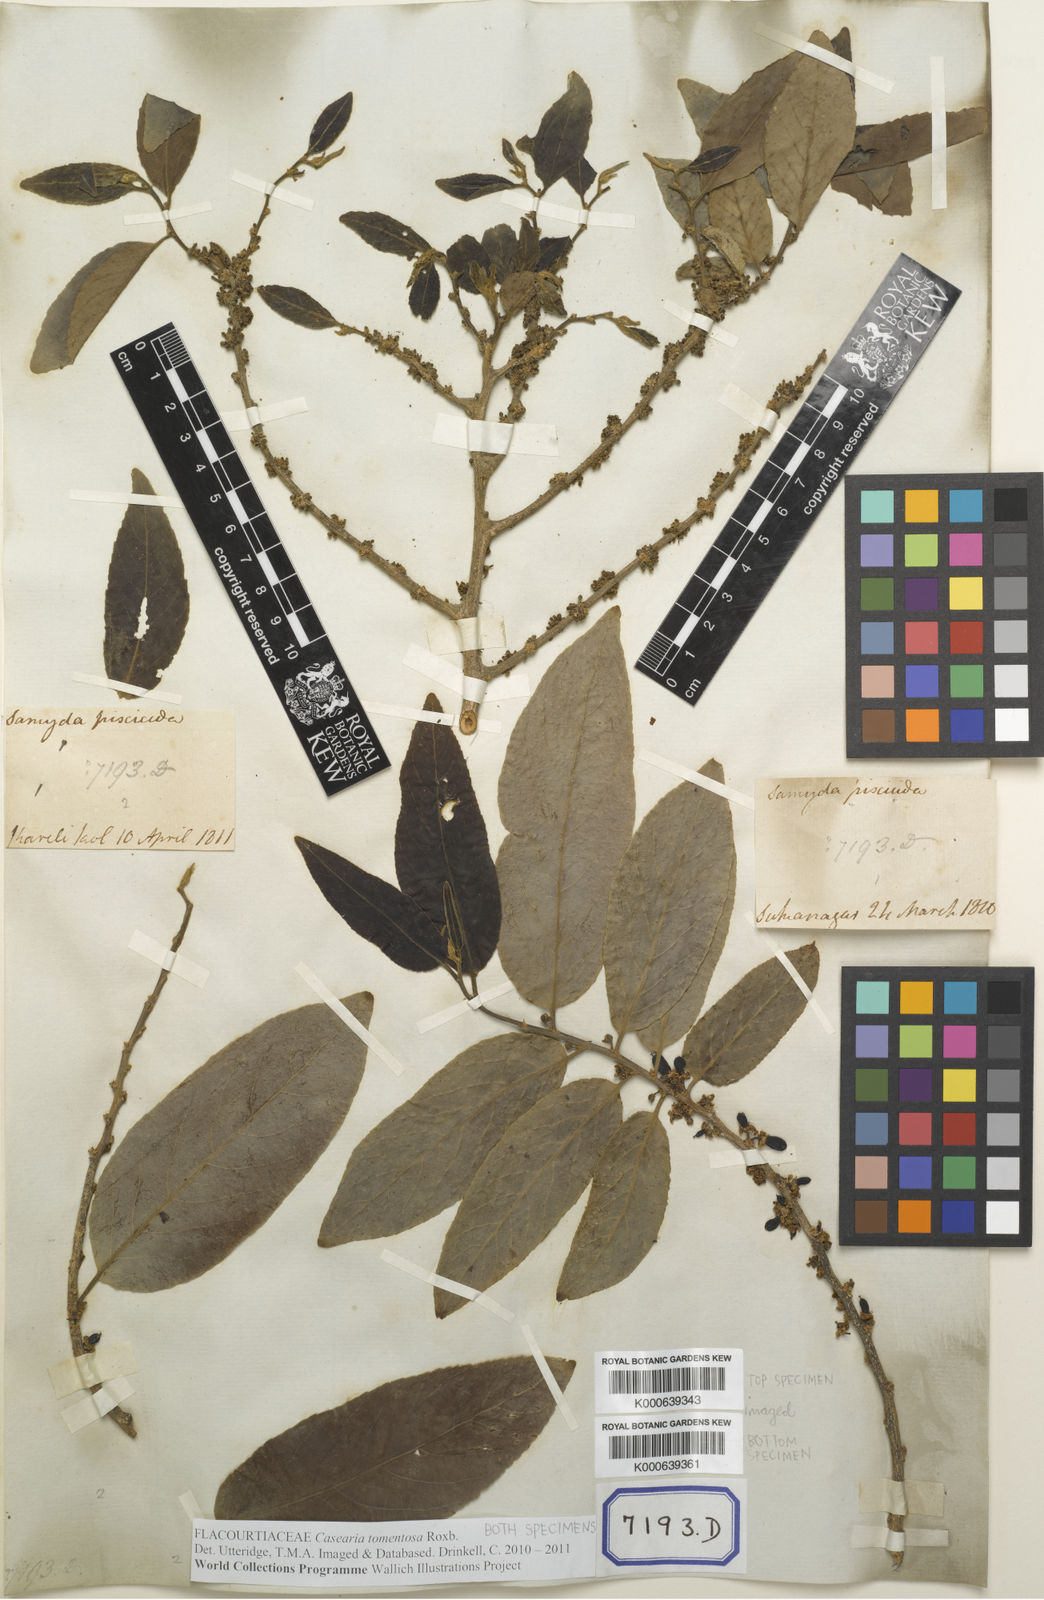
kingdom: Plantae
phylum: Tracheophyta
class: Magnoliopsida
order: Malpighiales
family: Salicaceae
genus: Casearia
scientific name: Casearia tomentosa
